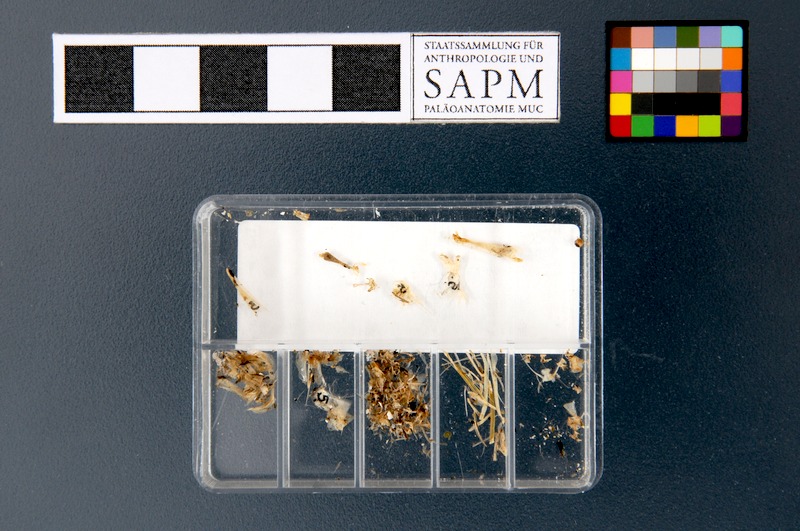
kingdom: Animalia
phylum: Chordata
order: Clupeiformes
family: Clupeidae
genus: Sardinella
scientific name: Sardinella gibbosa
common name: Goldstripe sardinella
